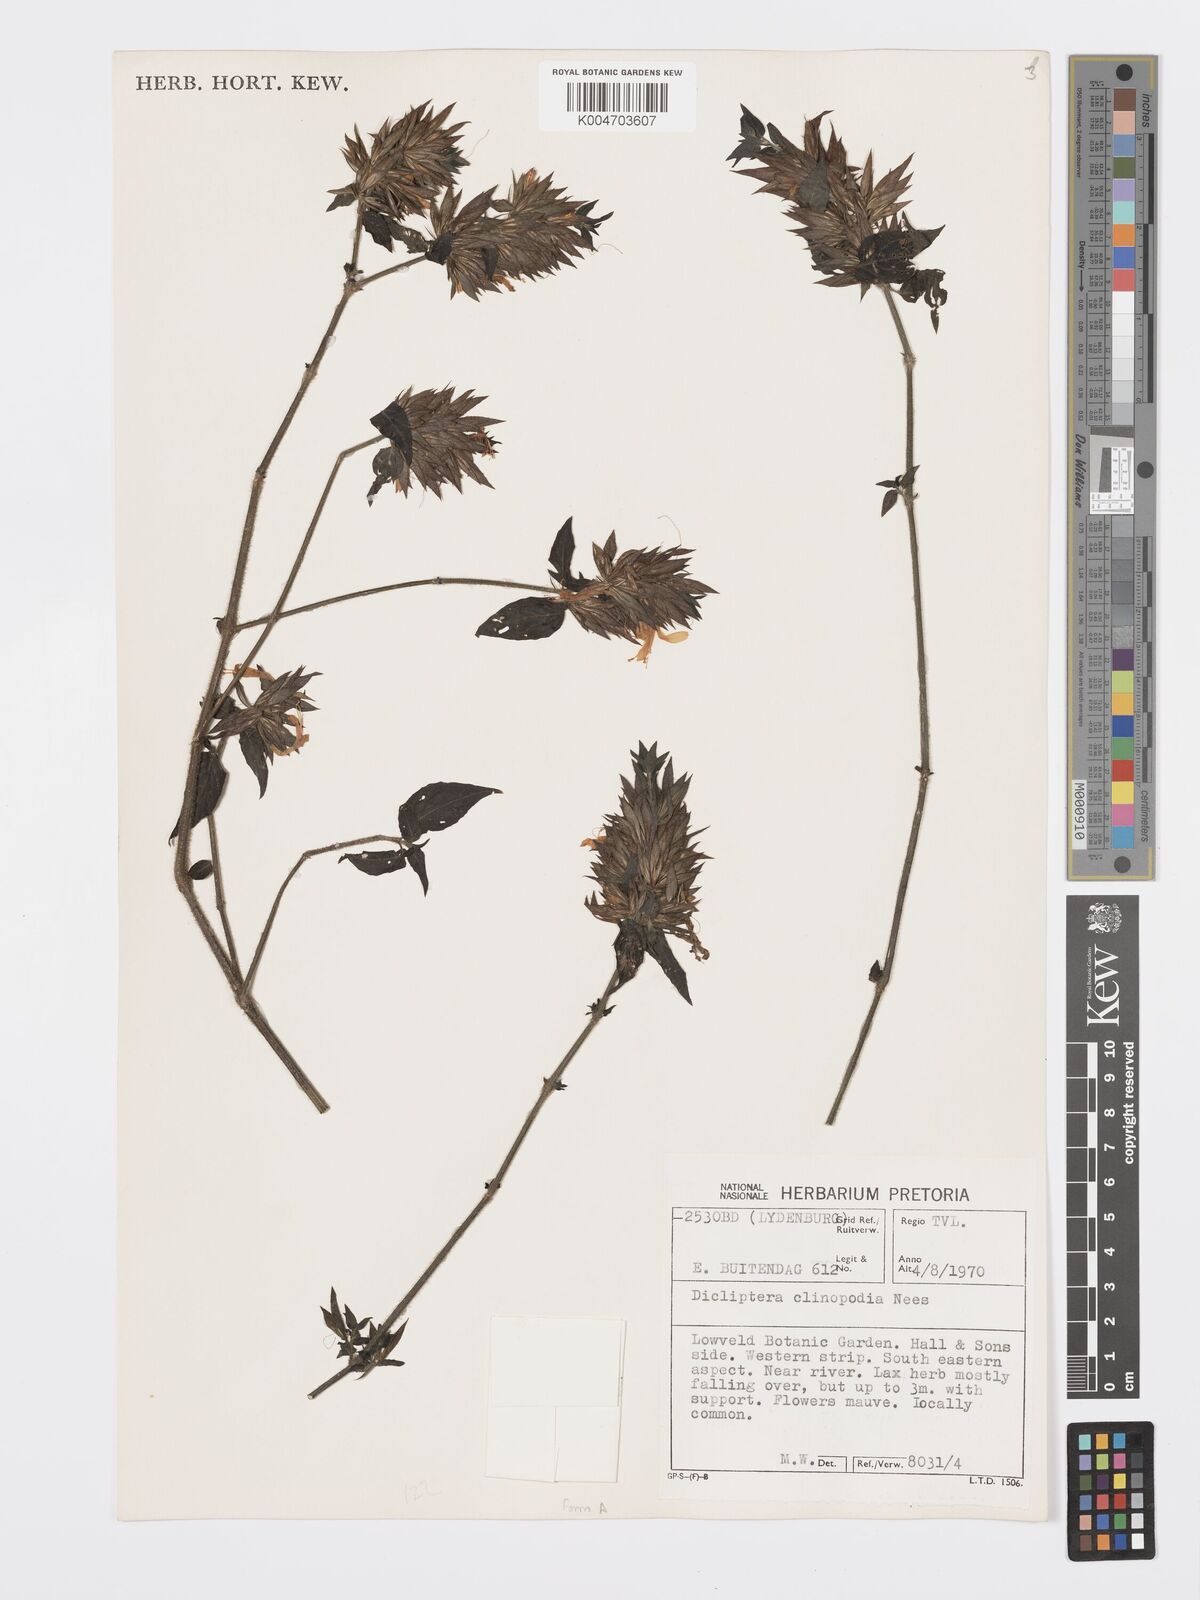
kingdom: Plantae
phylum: Tracheophyta
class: Magnoliopsida
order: Lamiales
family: Acanthaceae
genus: Dicliptera
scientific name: Dicliptera clinopodia
